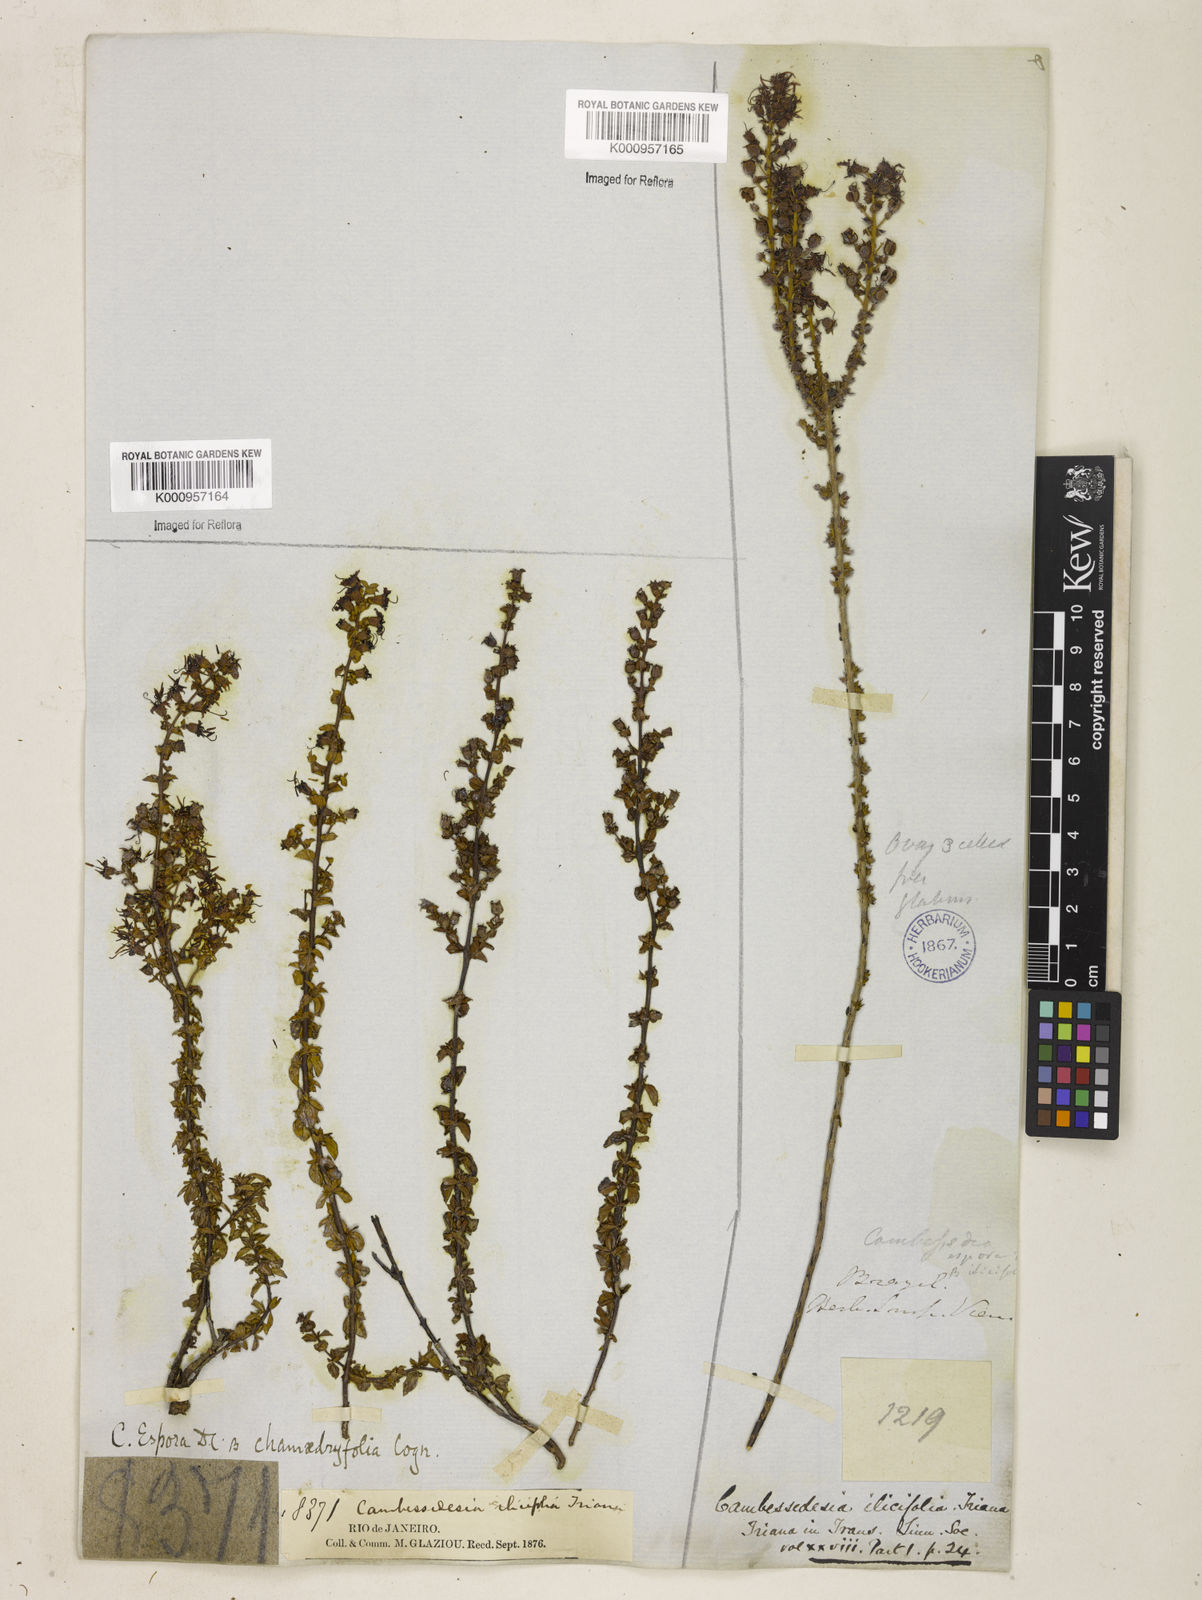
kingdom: Plantae
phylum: Tracheophyta
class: Magnoliopsida
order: Myrtales
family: Melastomataceae
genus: Cambessedesia
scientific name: Cambessedesia espora
